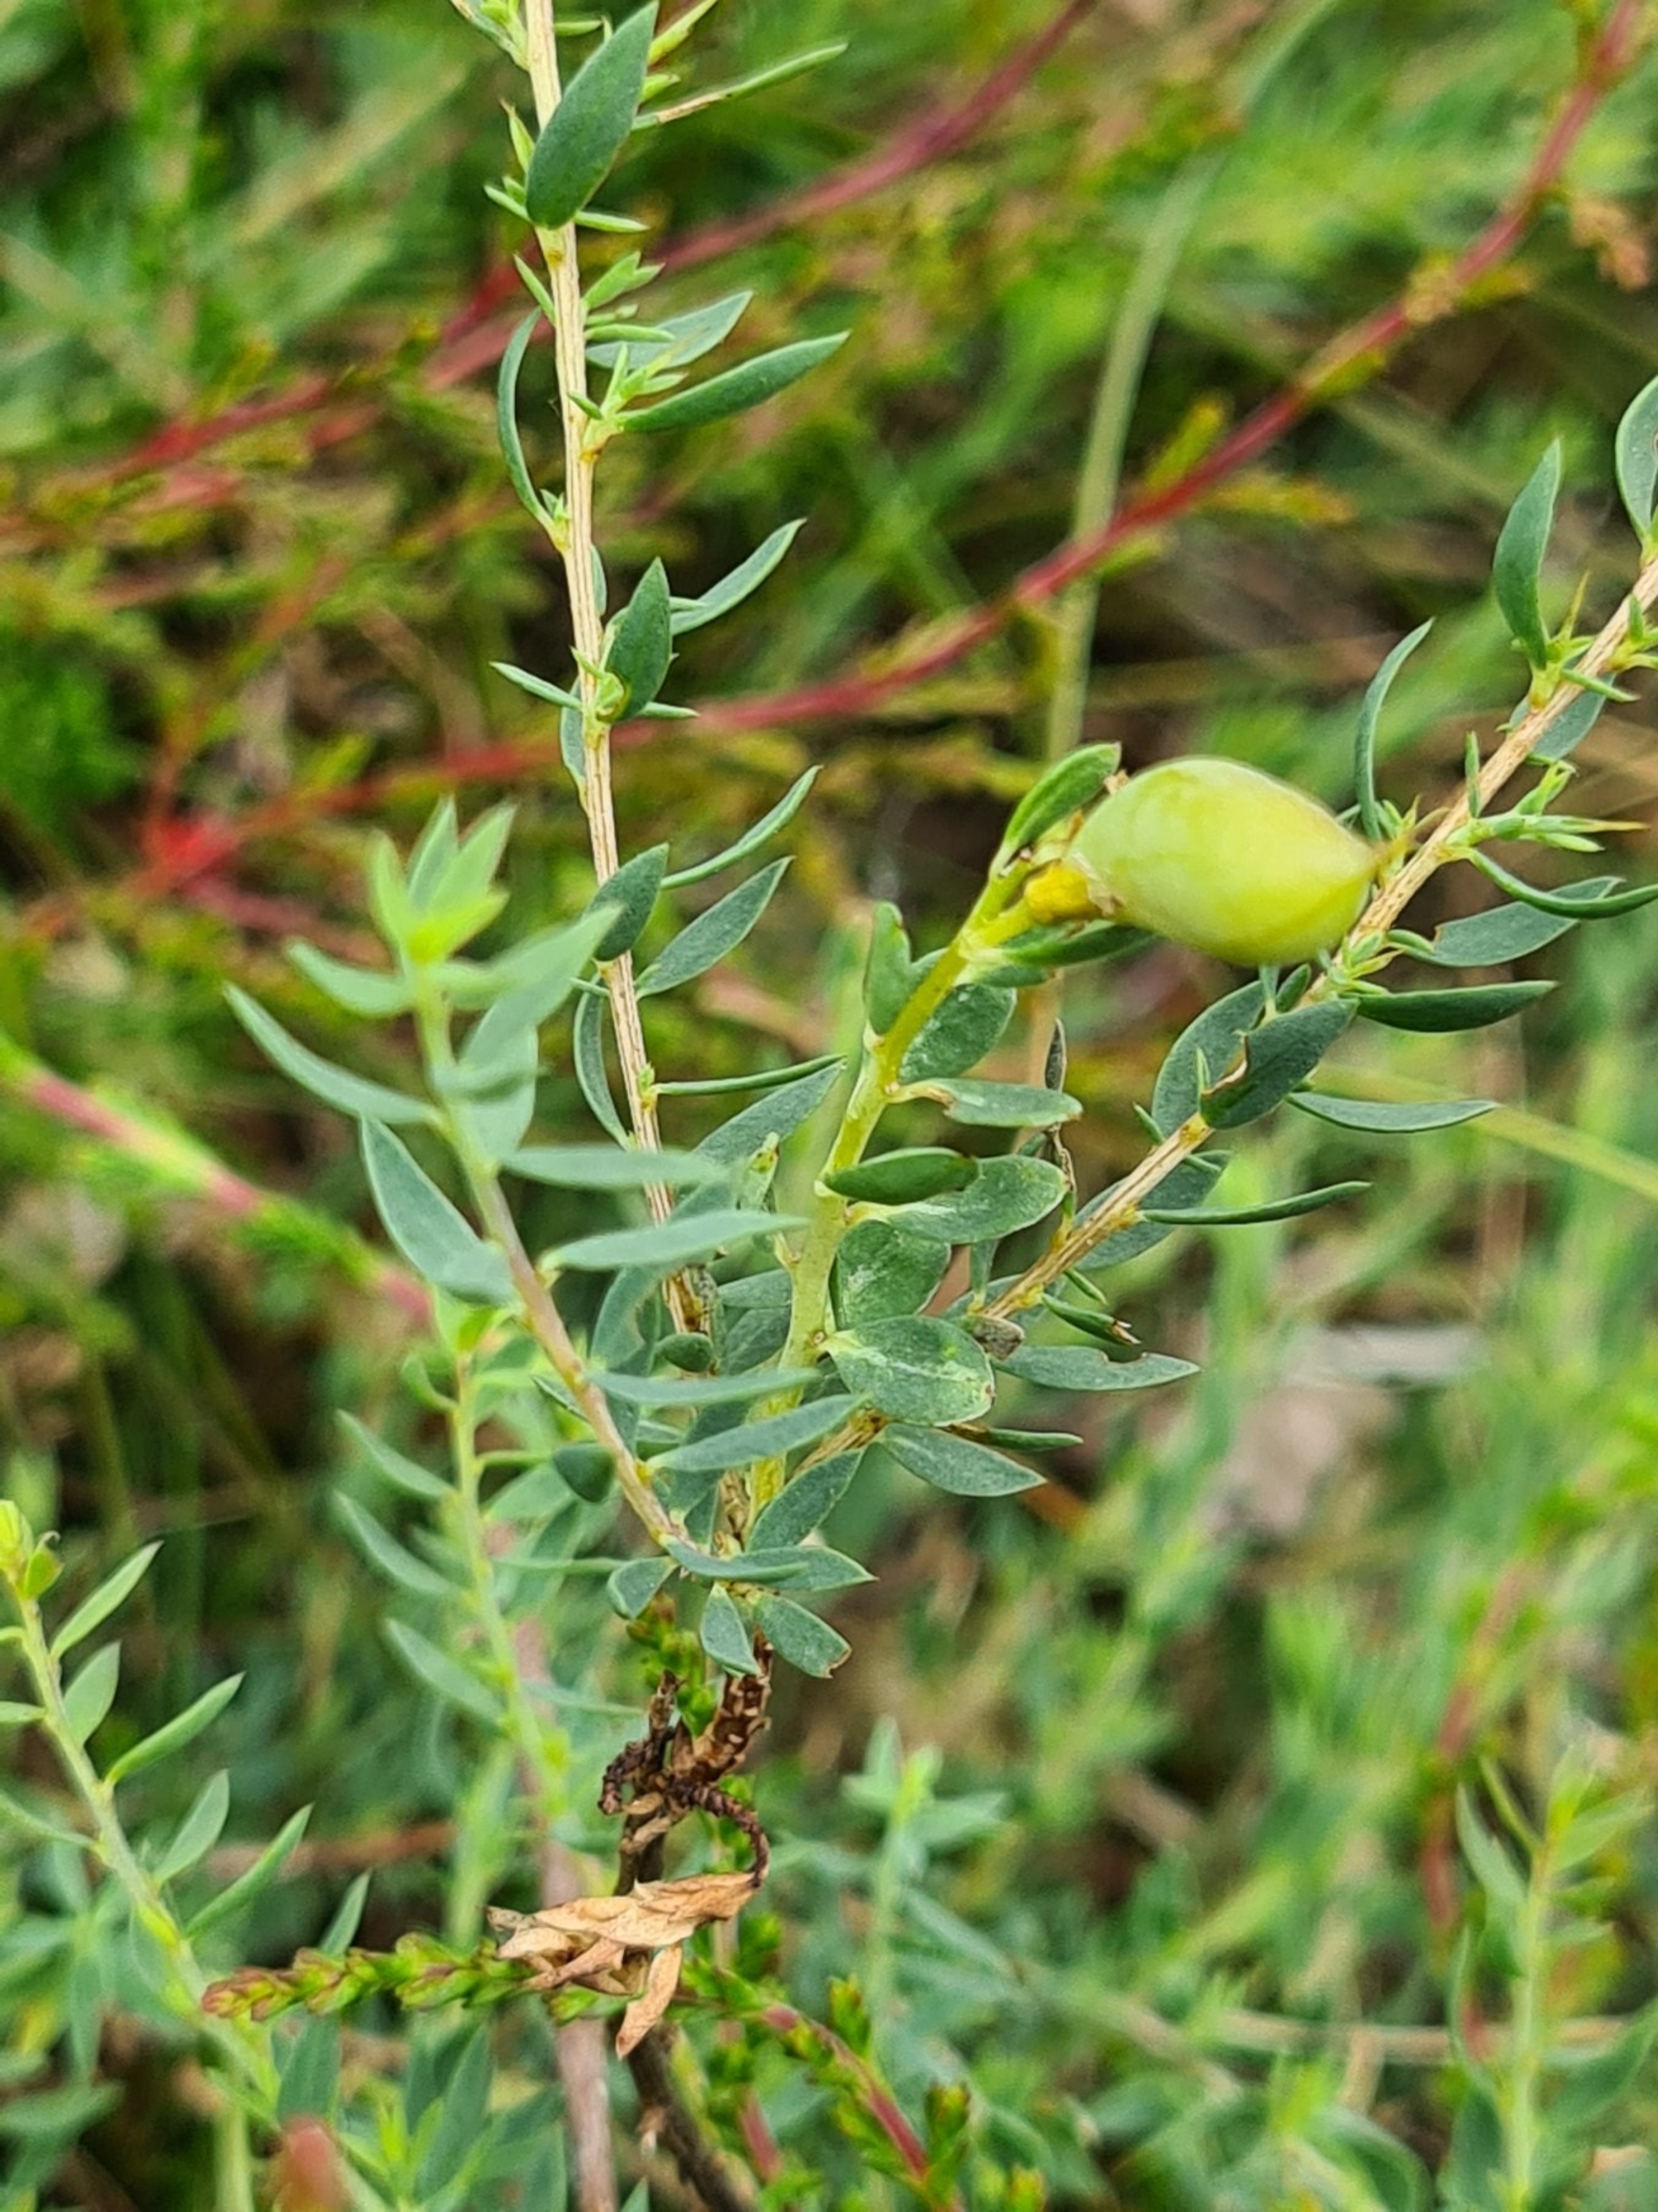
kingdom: Plantae
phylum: Tracheophyta
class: Magnoliopsida
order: Fabales
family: Fabaceae
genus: Genista
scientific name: Genista anglica
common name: Engelsk visse
